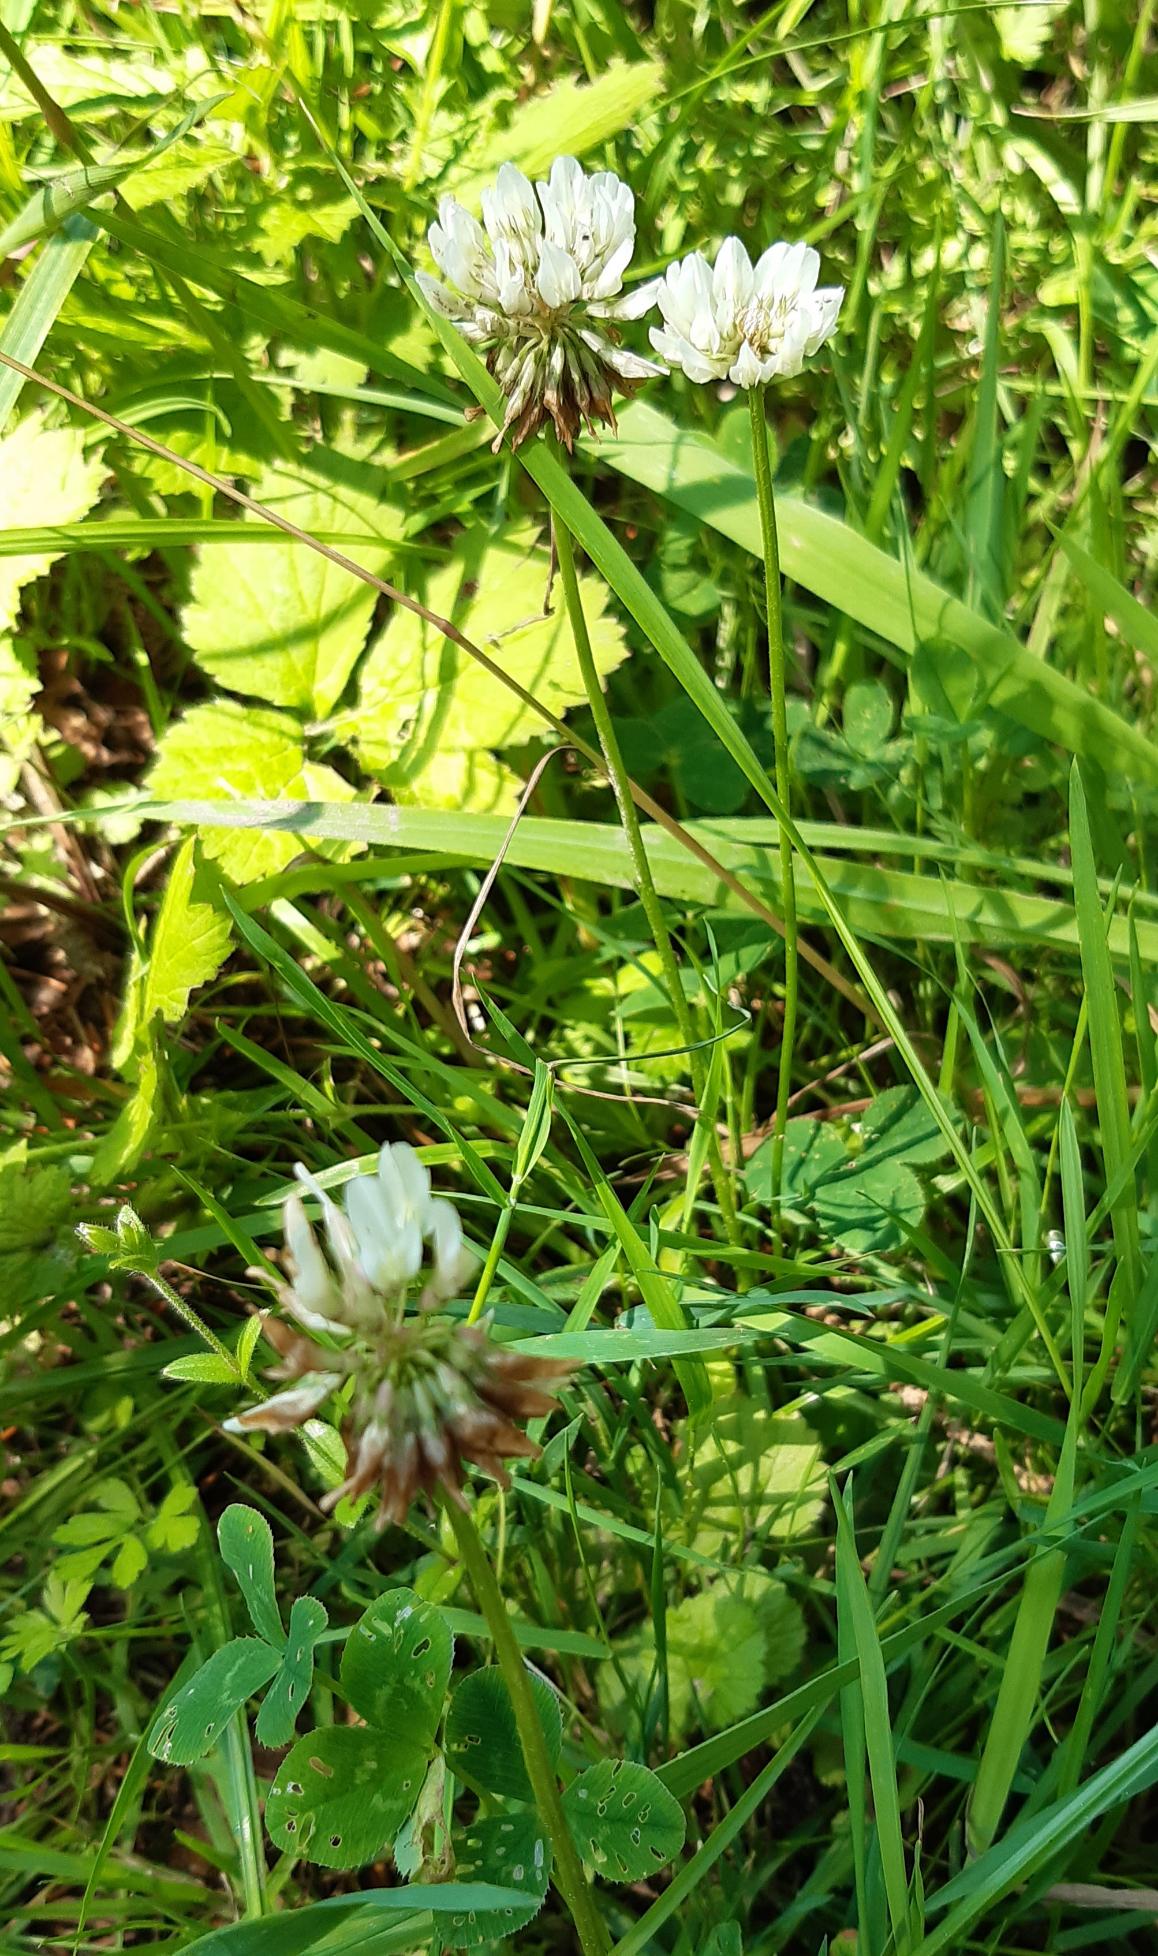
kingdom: Plantae
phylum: Tracheophyta
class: Magnoliopsida
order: Fabales
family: Fabaceae
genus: Trifolium
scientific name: Trifolium repens
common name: Hvid-kløver
